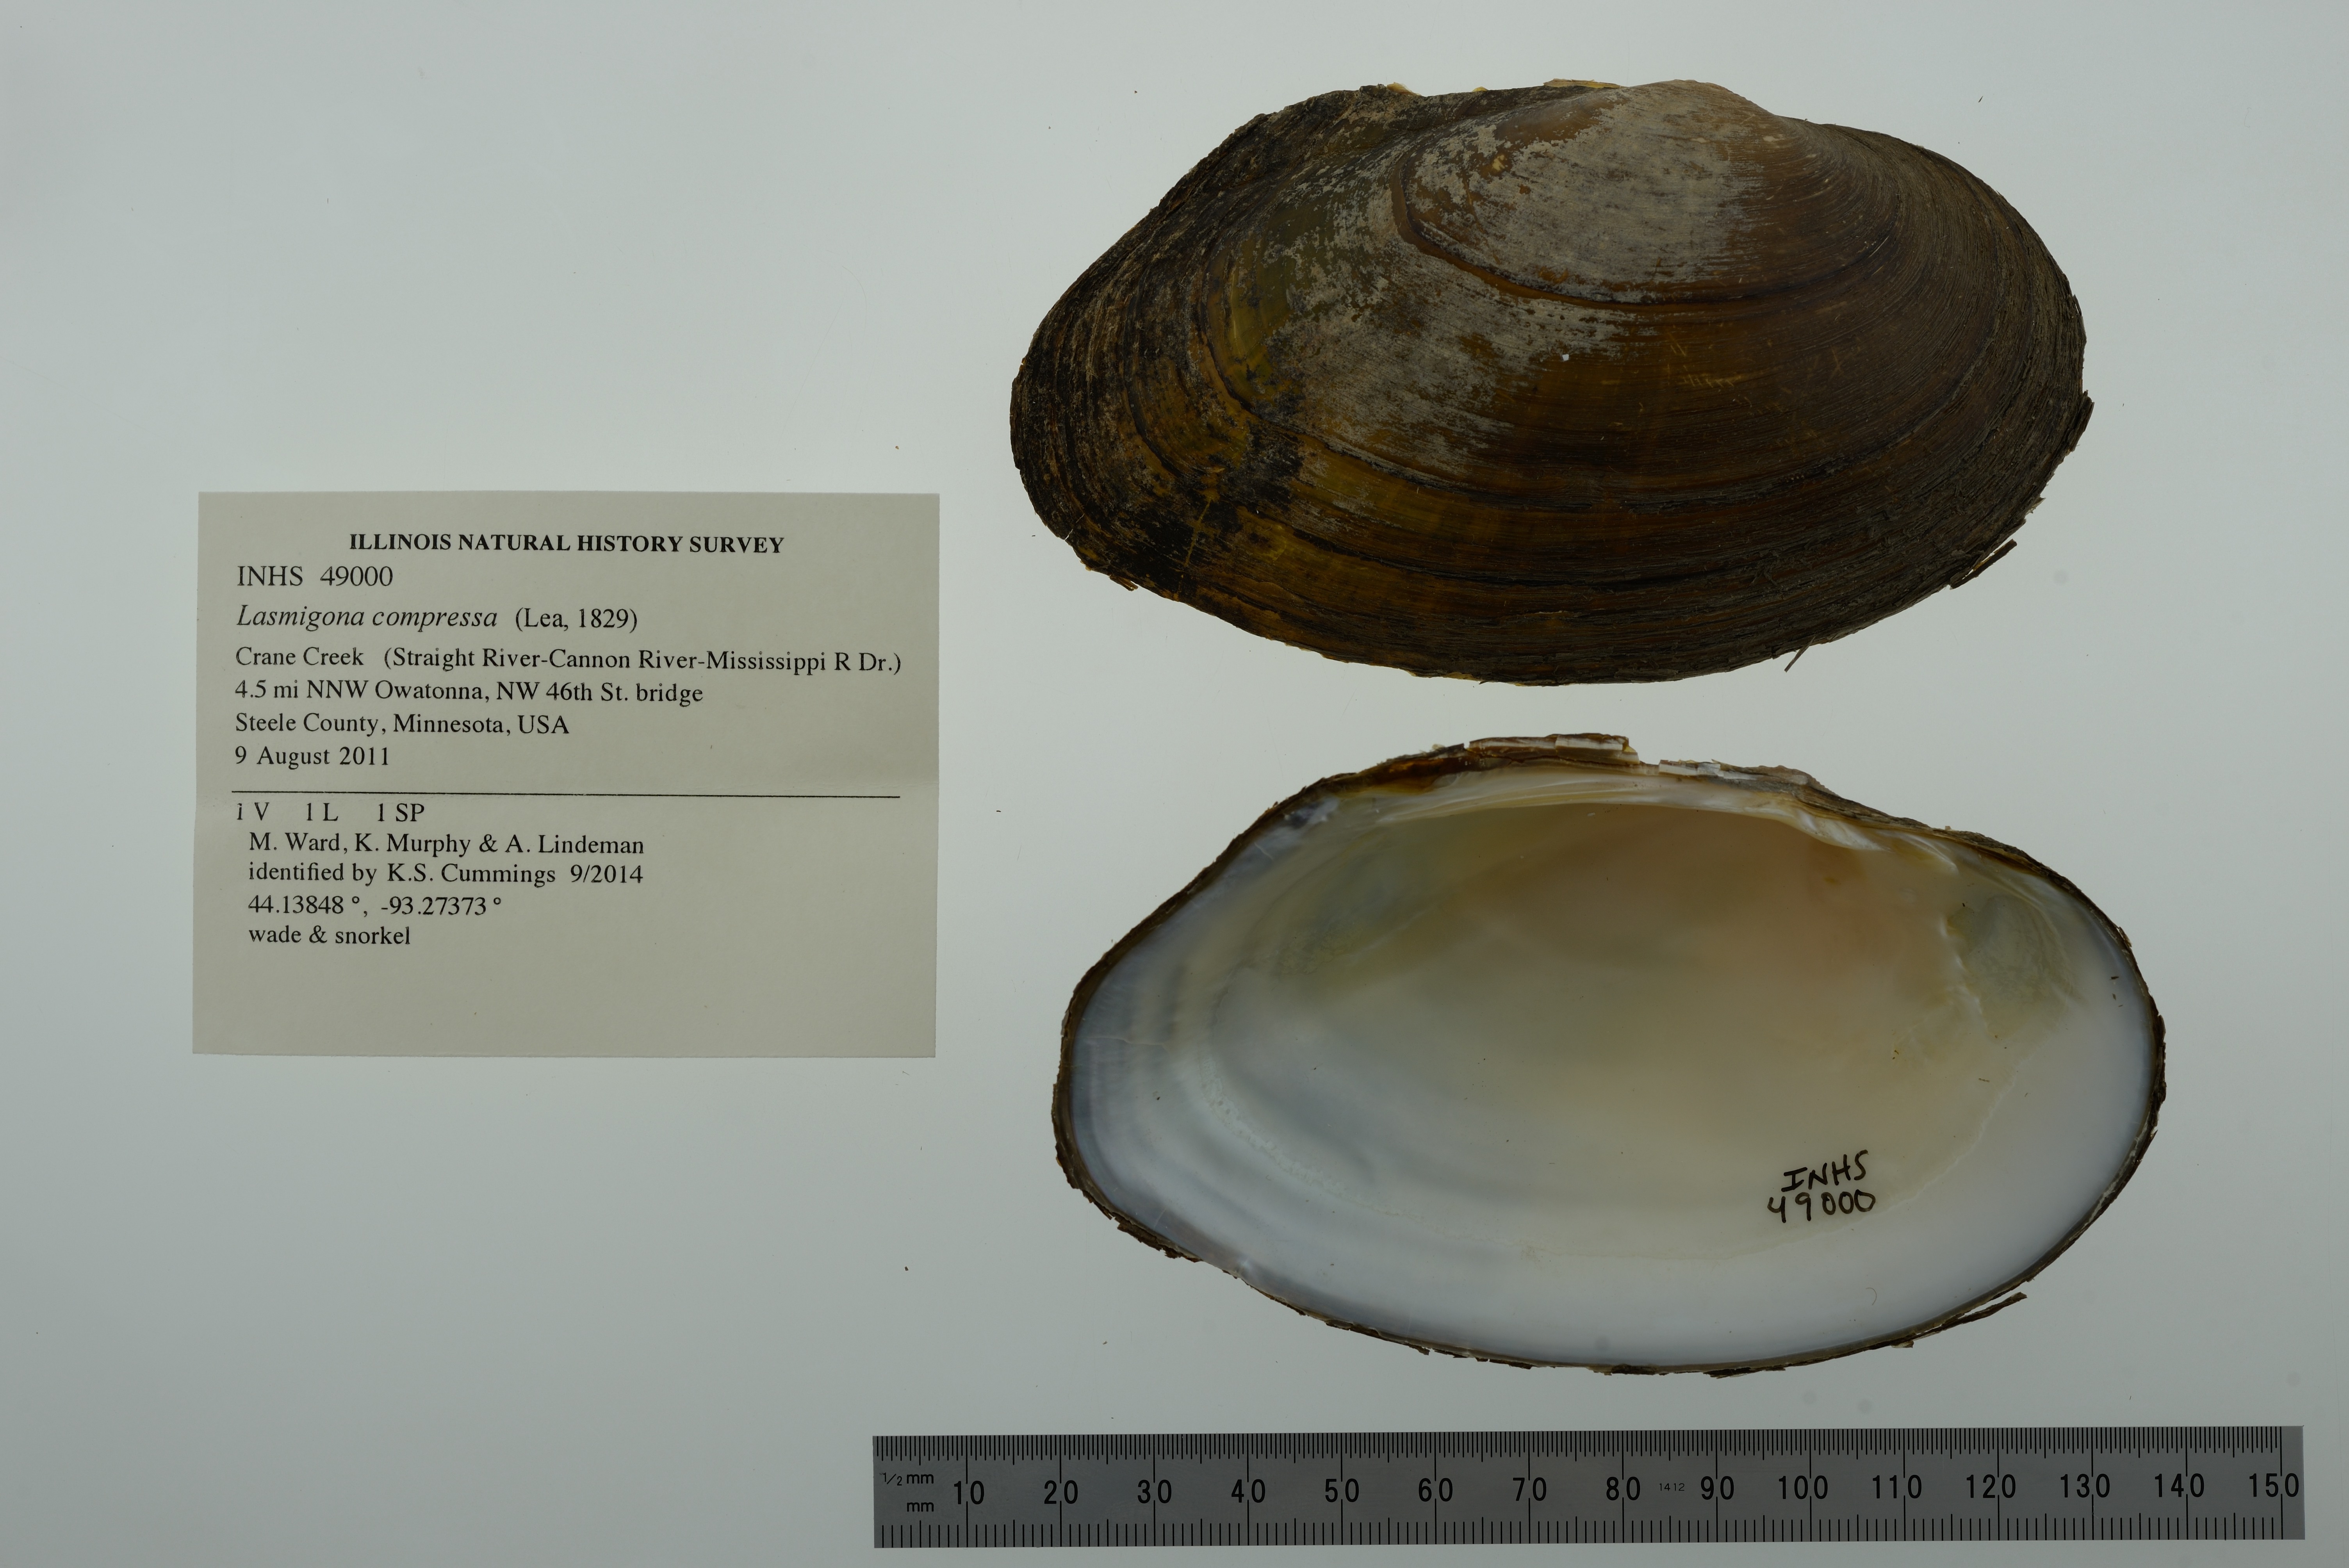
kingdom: Animalia
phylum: Mollusca
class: Bivalvia
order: Unionida
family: Unionidae
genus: Lasmigona
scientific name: Lasmigona compressa
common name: Creek heelsplitter
